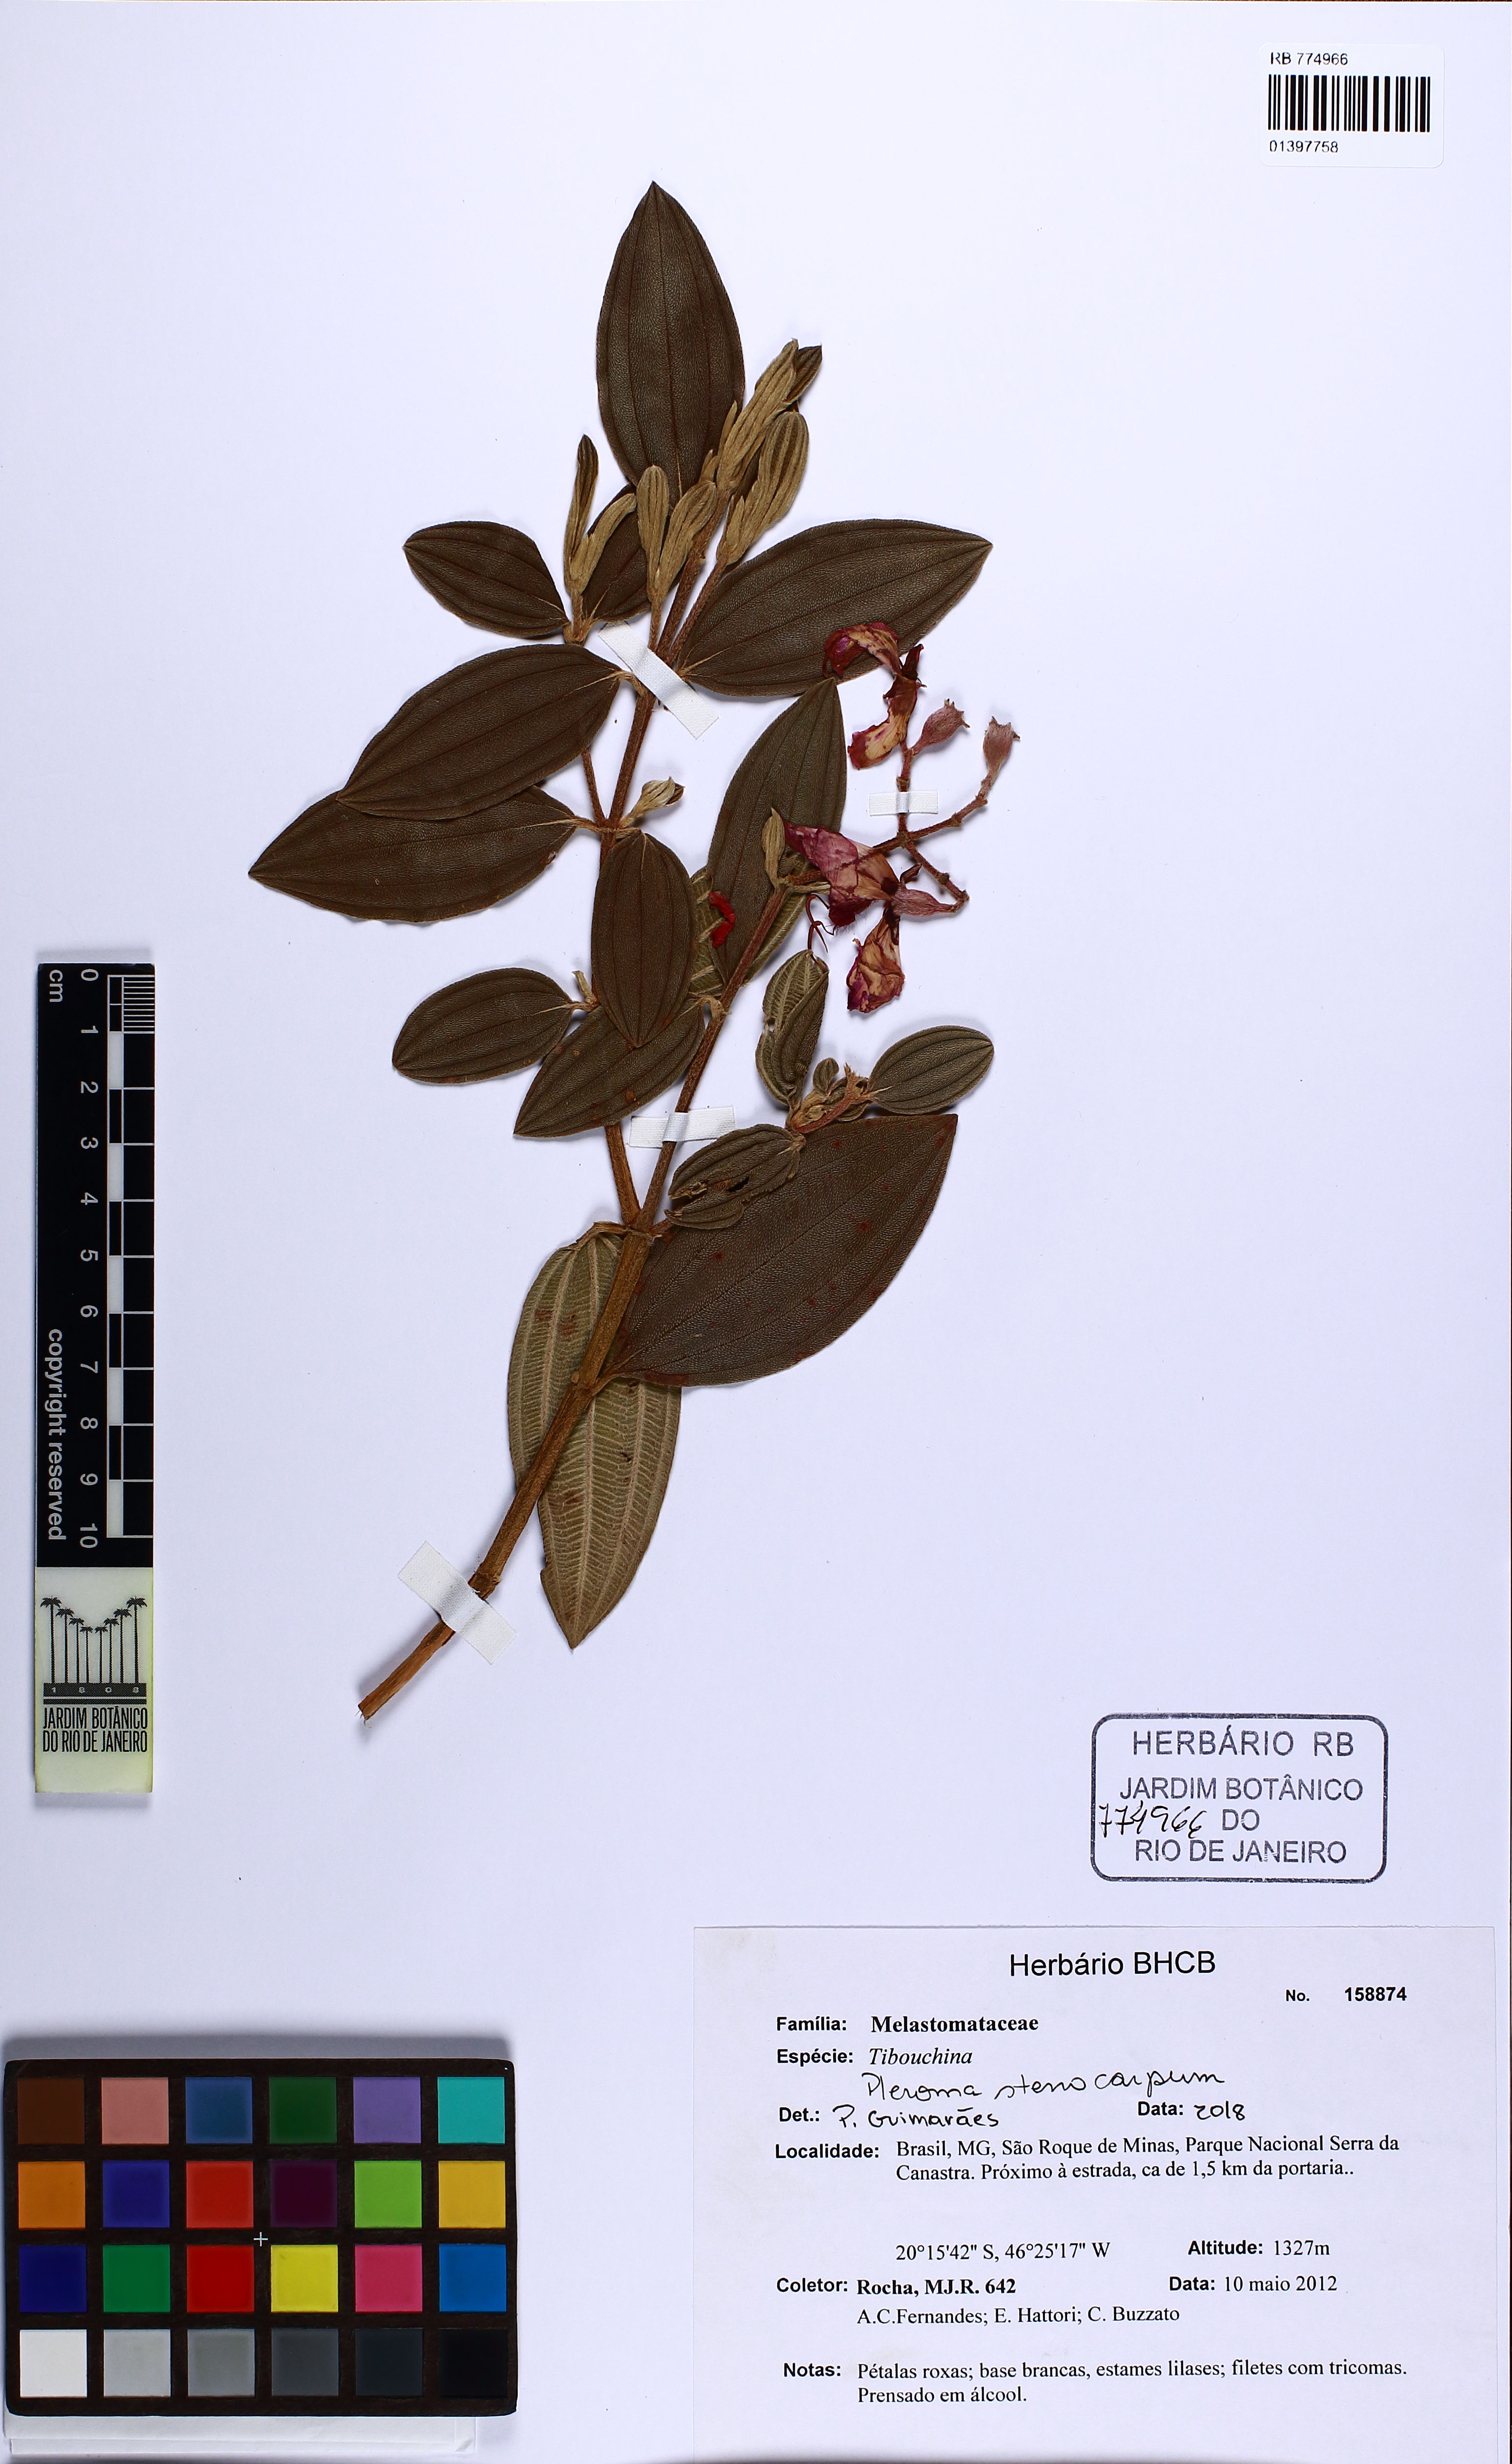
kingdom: Plantae
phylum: Tracheophyta
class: Magnoliopsida
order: Myrtales
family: Melastomataceae
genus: Pleroma
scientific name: Pleroma stenocarpum
